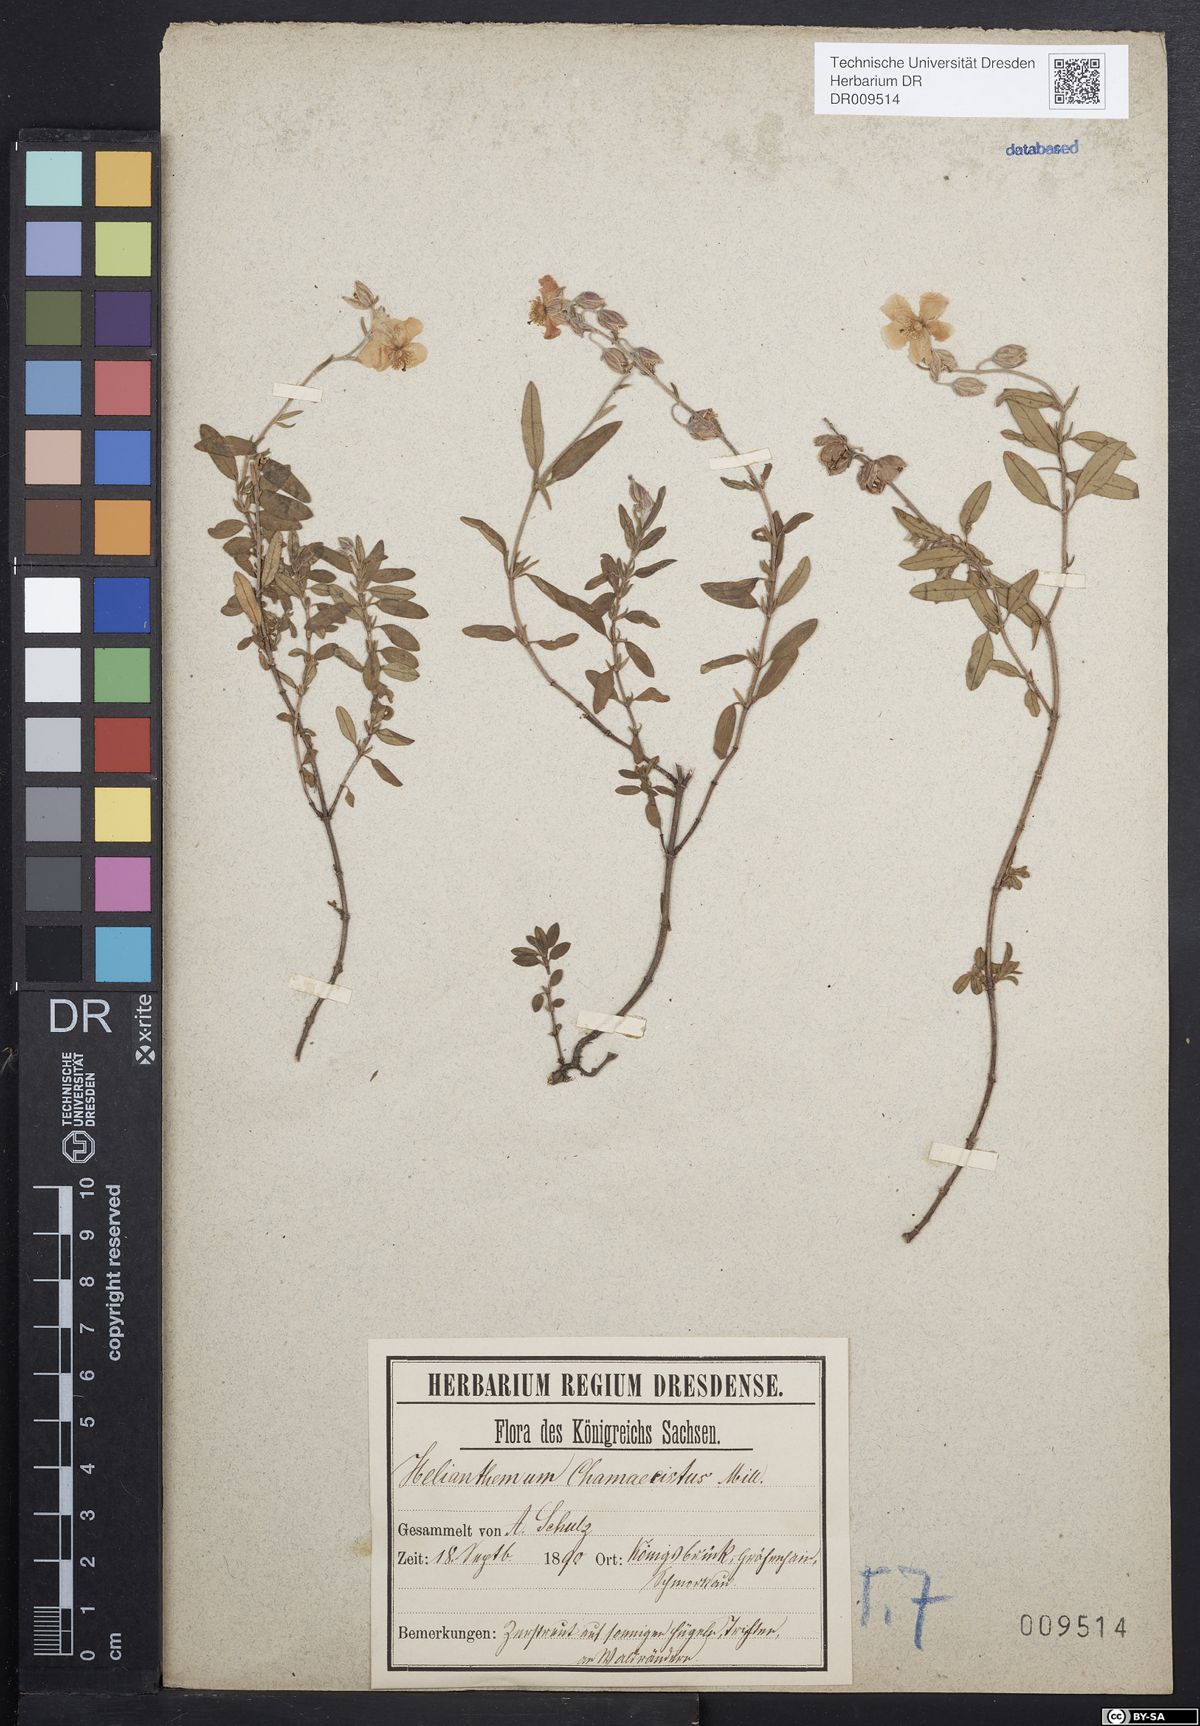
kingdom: Plantae
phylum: Tracheophyta
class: Magnoliopsida
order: Malvales
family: Cistaceae
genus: Helianthemum
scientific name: Helianthemum nummularium
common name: Common rock-rose
